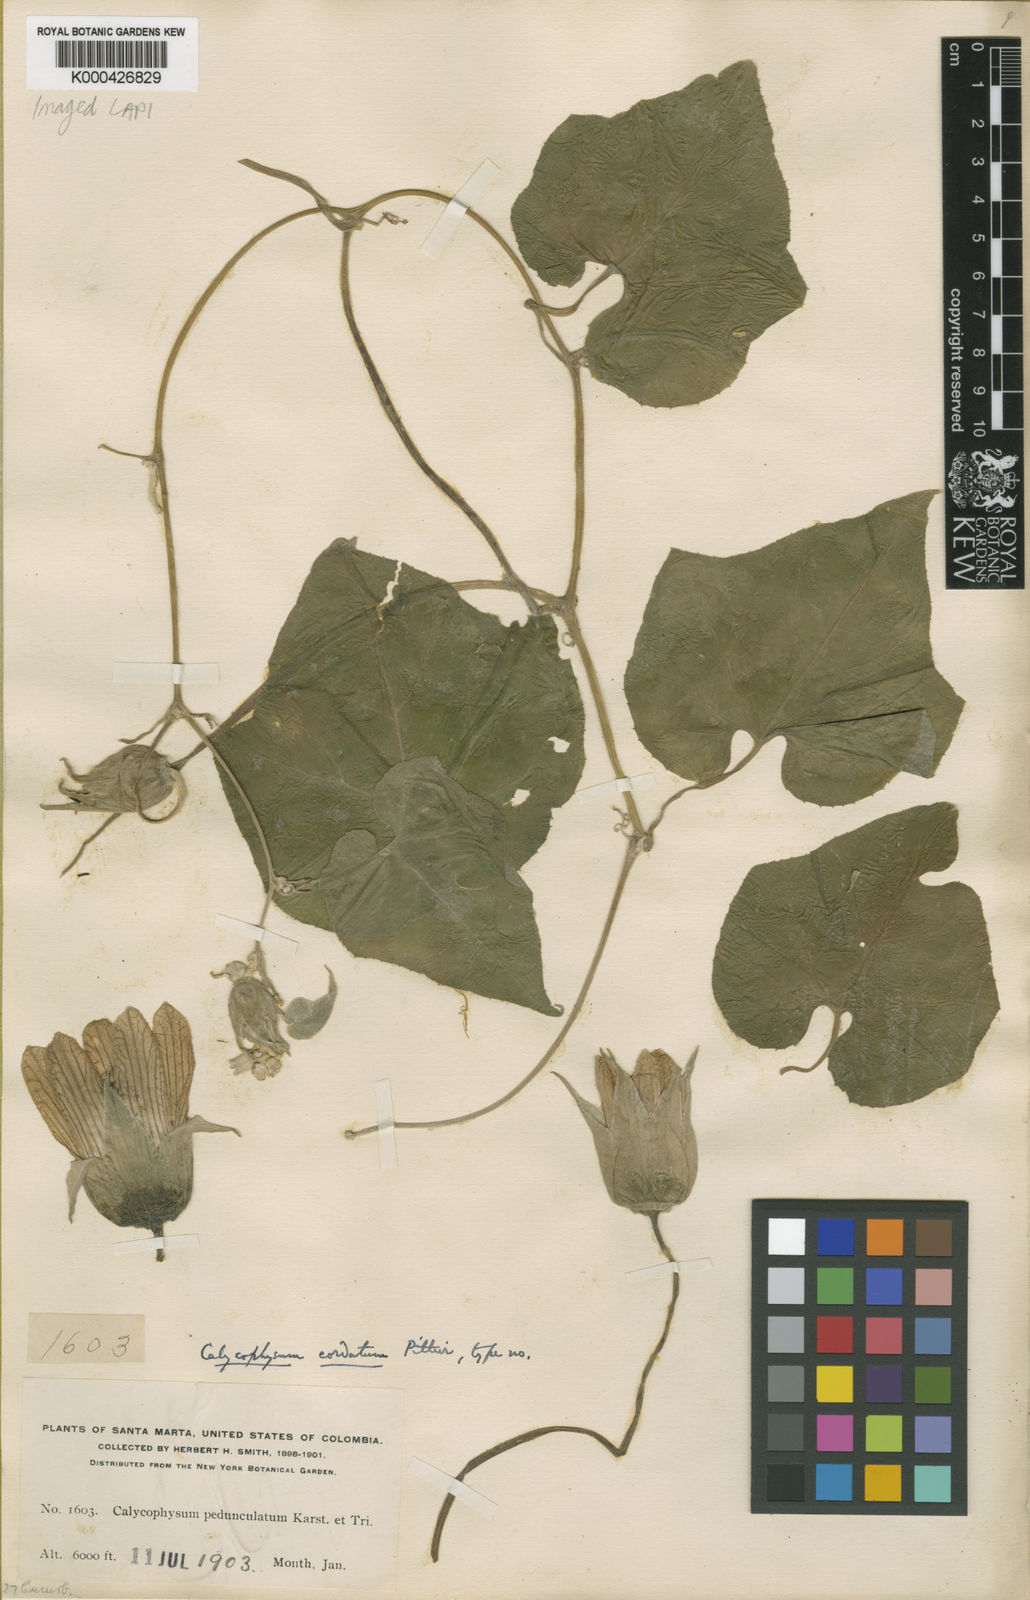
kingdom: Plantae
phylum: Tracheophyta
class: Magnoliopsida
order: Cucurbitales
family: Cucurbitaceae
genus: Calycophysum
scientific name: Calycophysum spectabile
